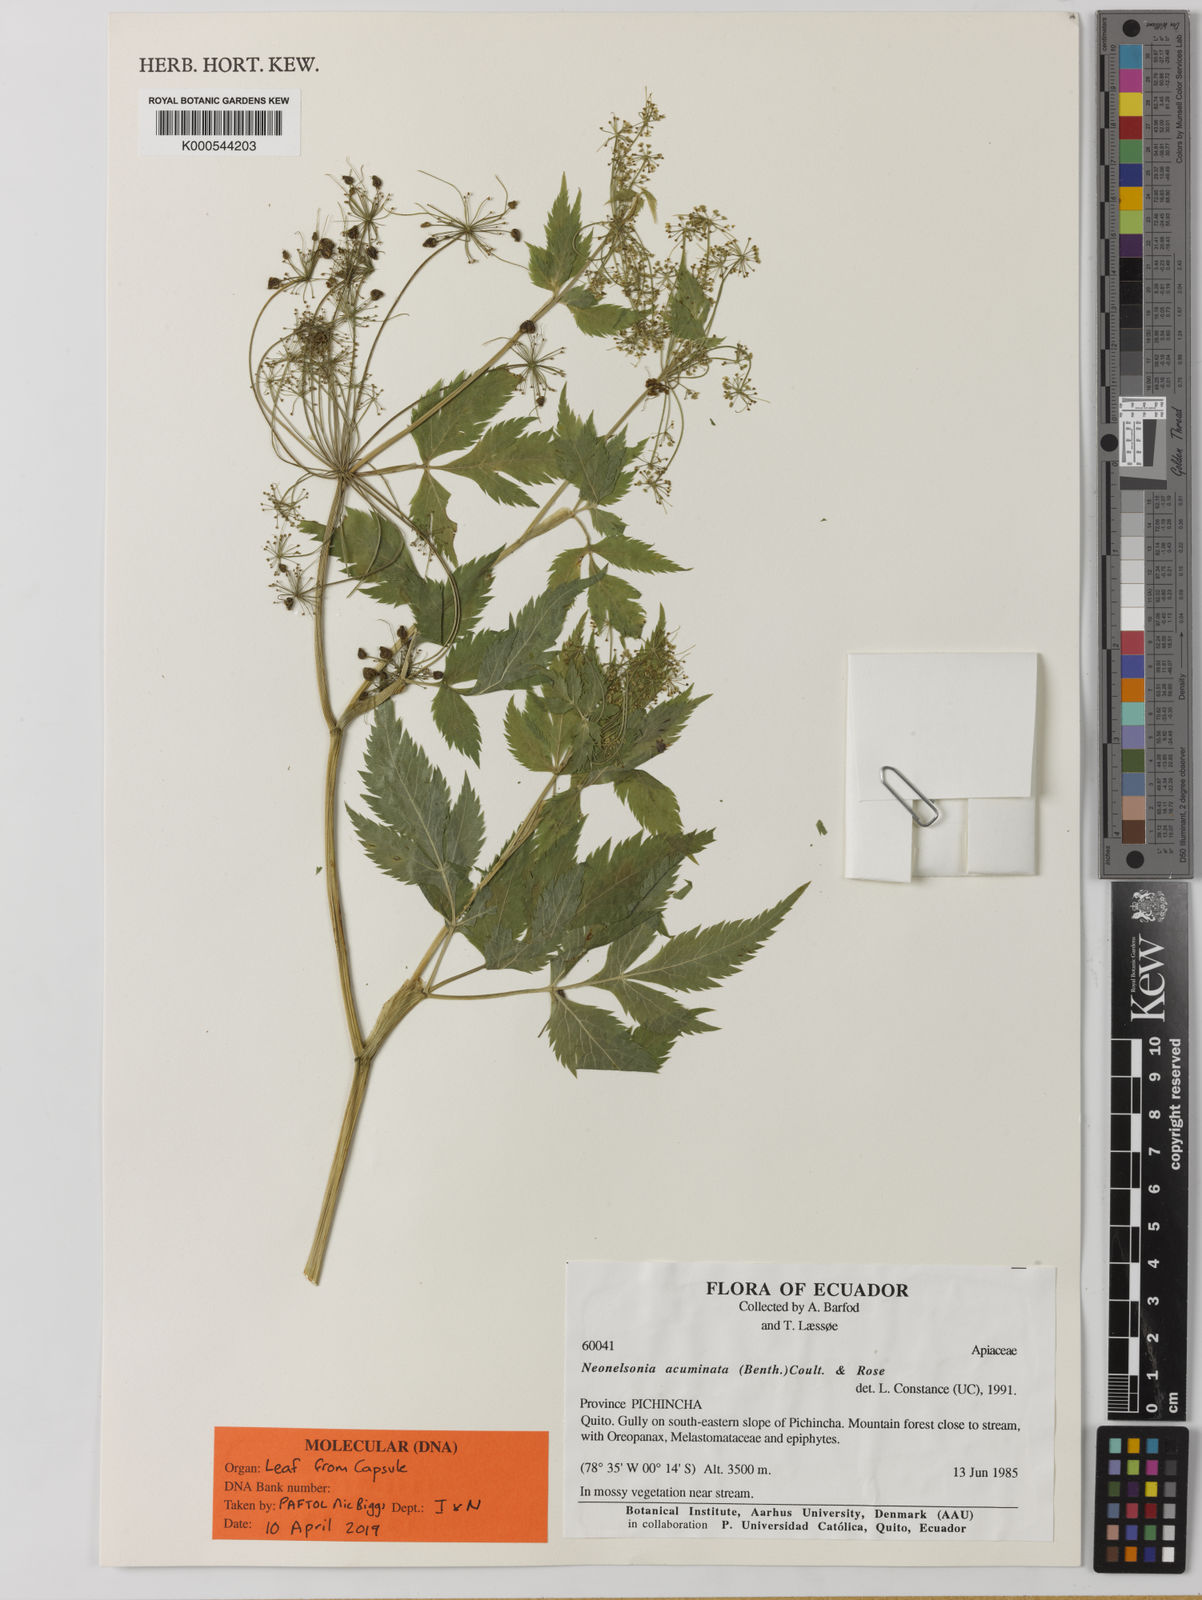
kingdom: Plantae
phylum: Tracheophyta
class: Magnoliopsida
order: Apiales
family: Apiaceae
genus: Neonelsonia
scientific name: Neonelsonia
